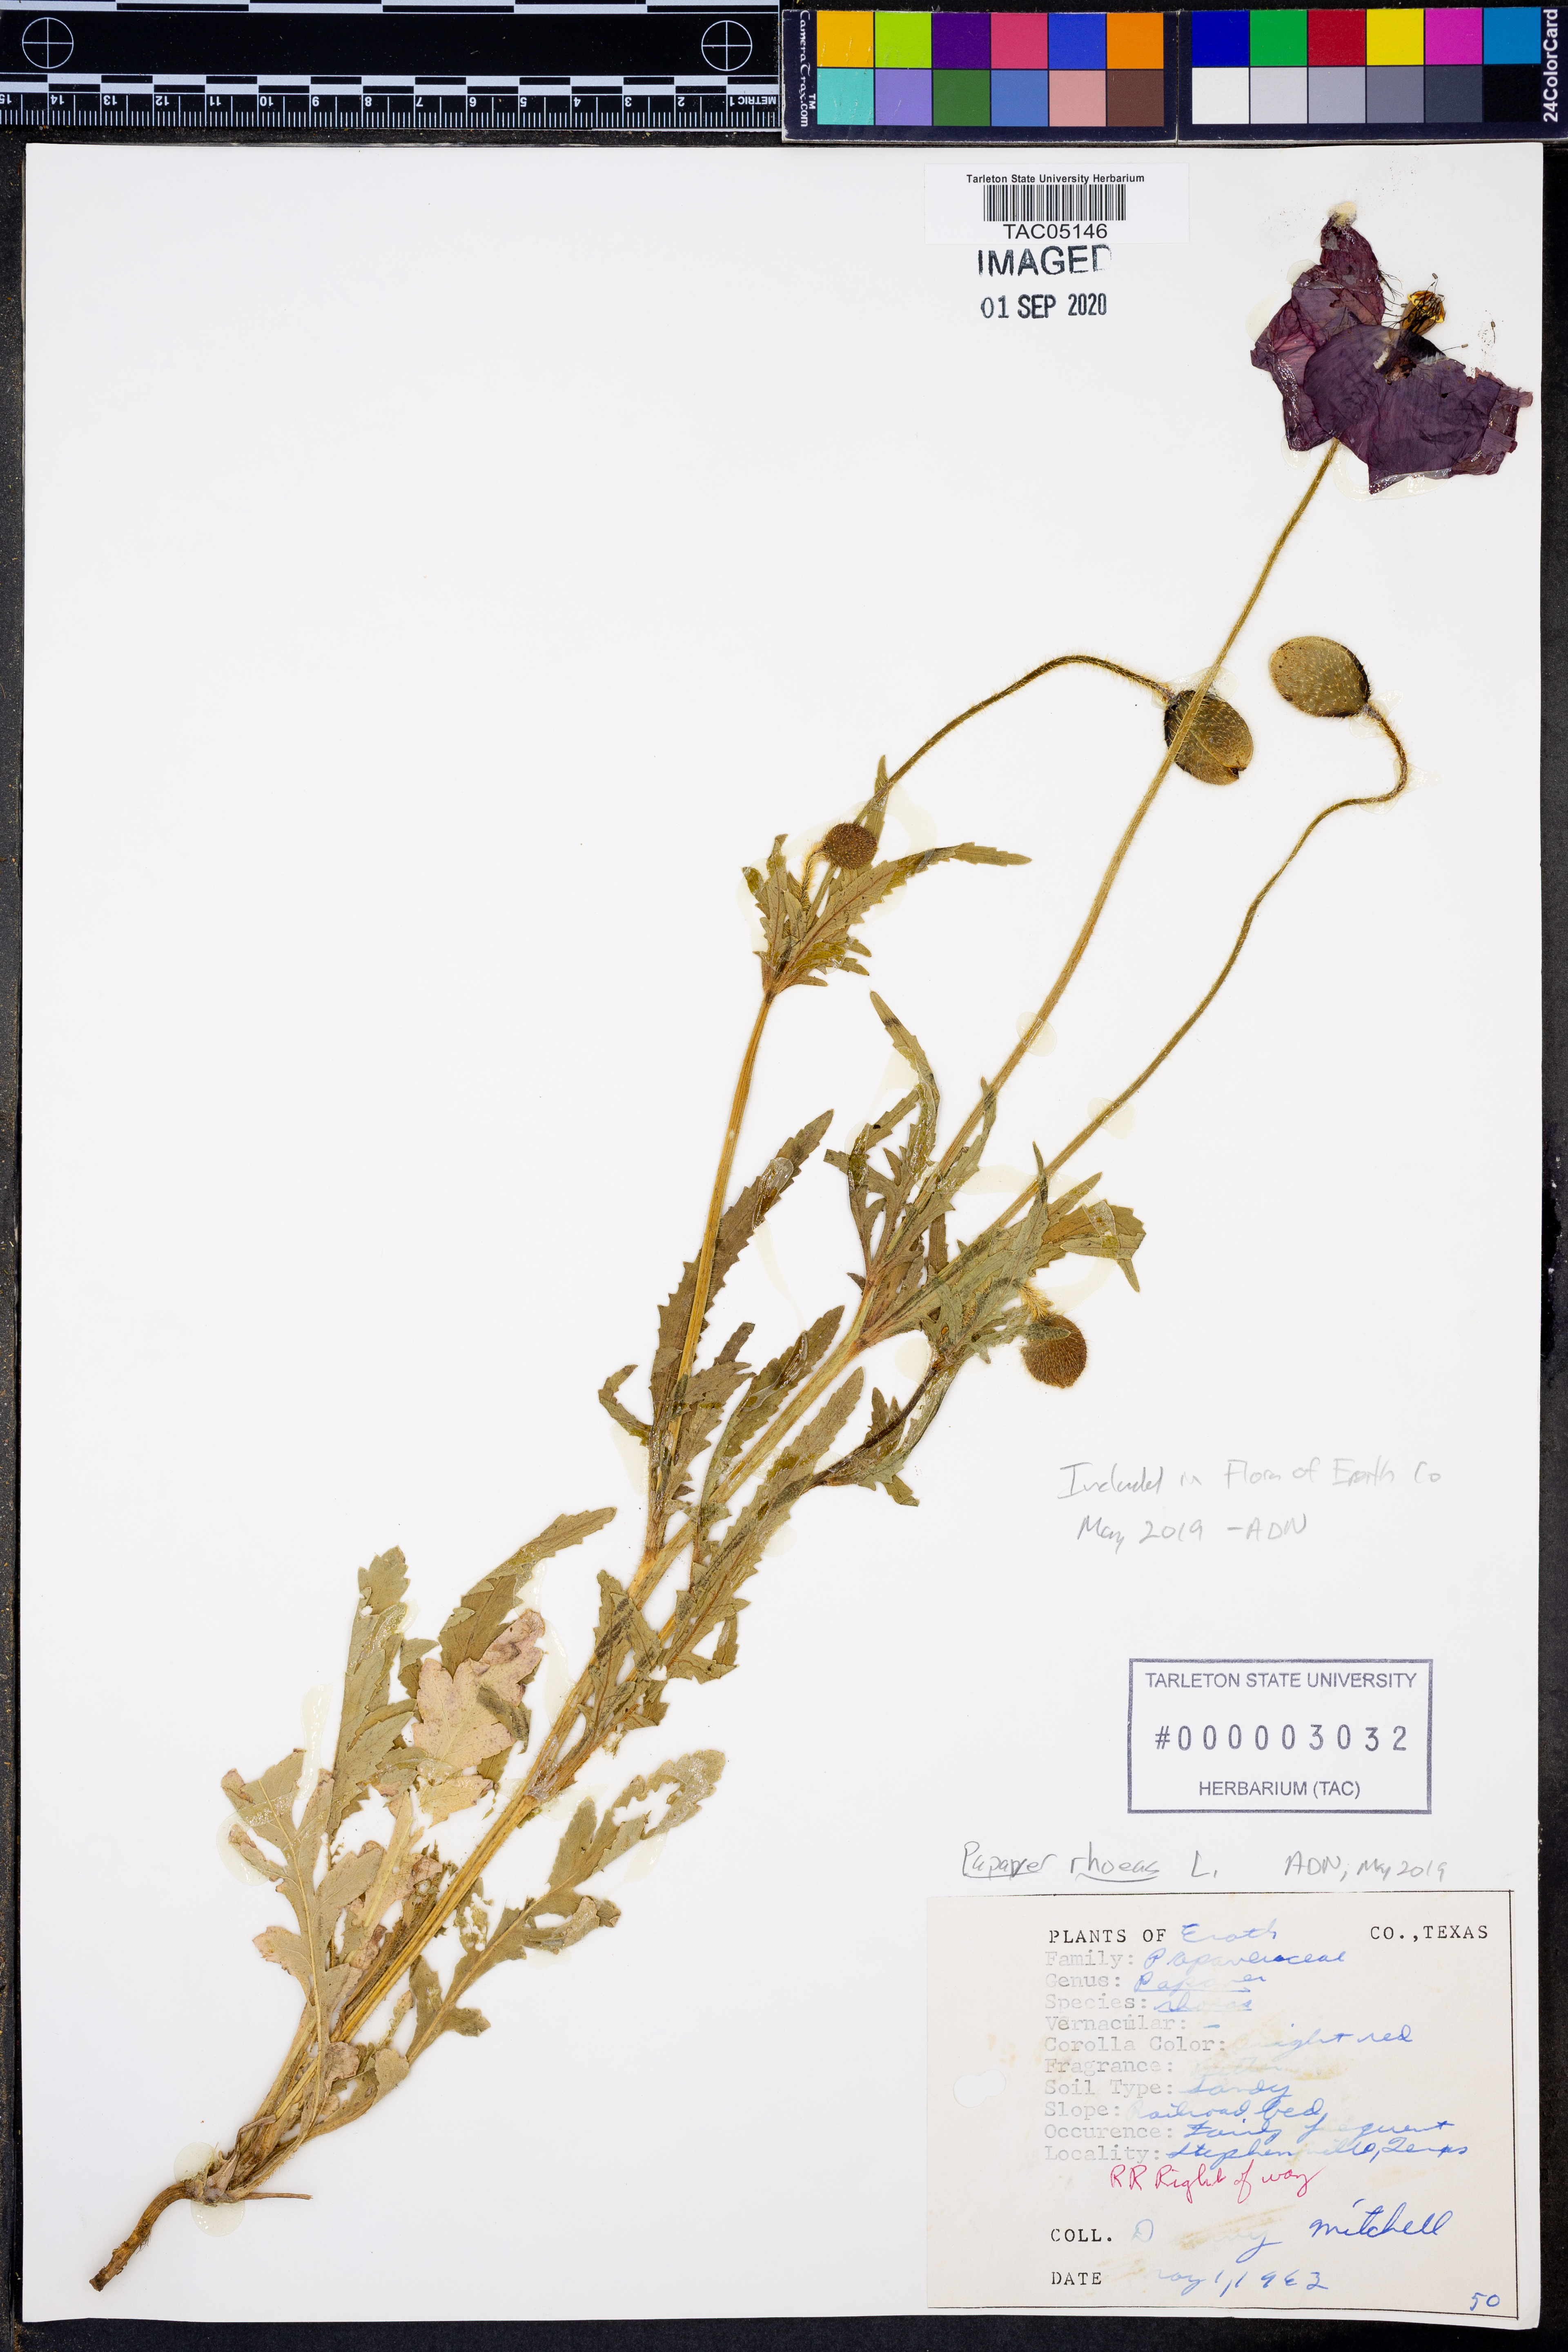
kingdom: Plantae
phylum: Tracheophyta
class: Magnoliopsida
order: Ranunculales
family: Papaveraceae
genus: Papaver
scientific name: Papaver rhoeas
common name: Corn poppy
